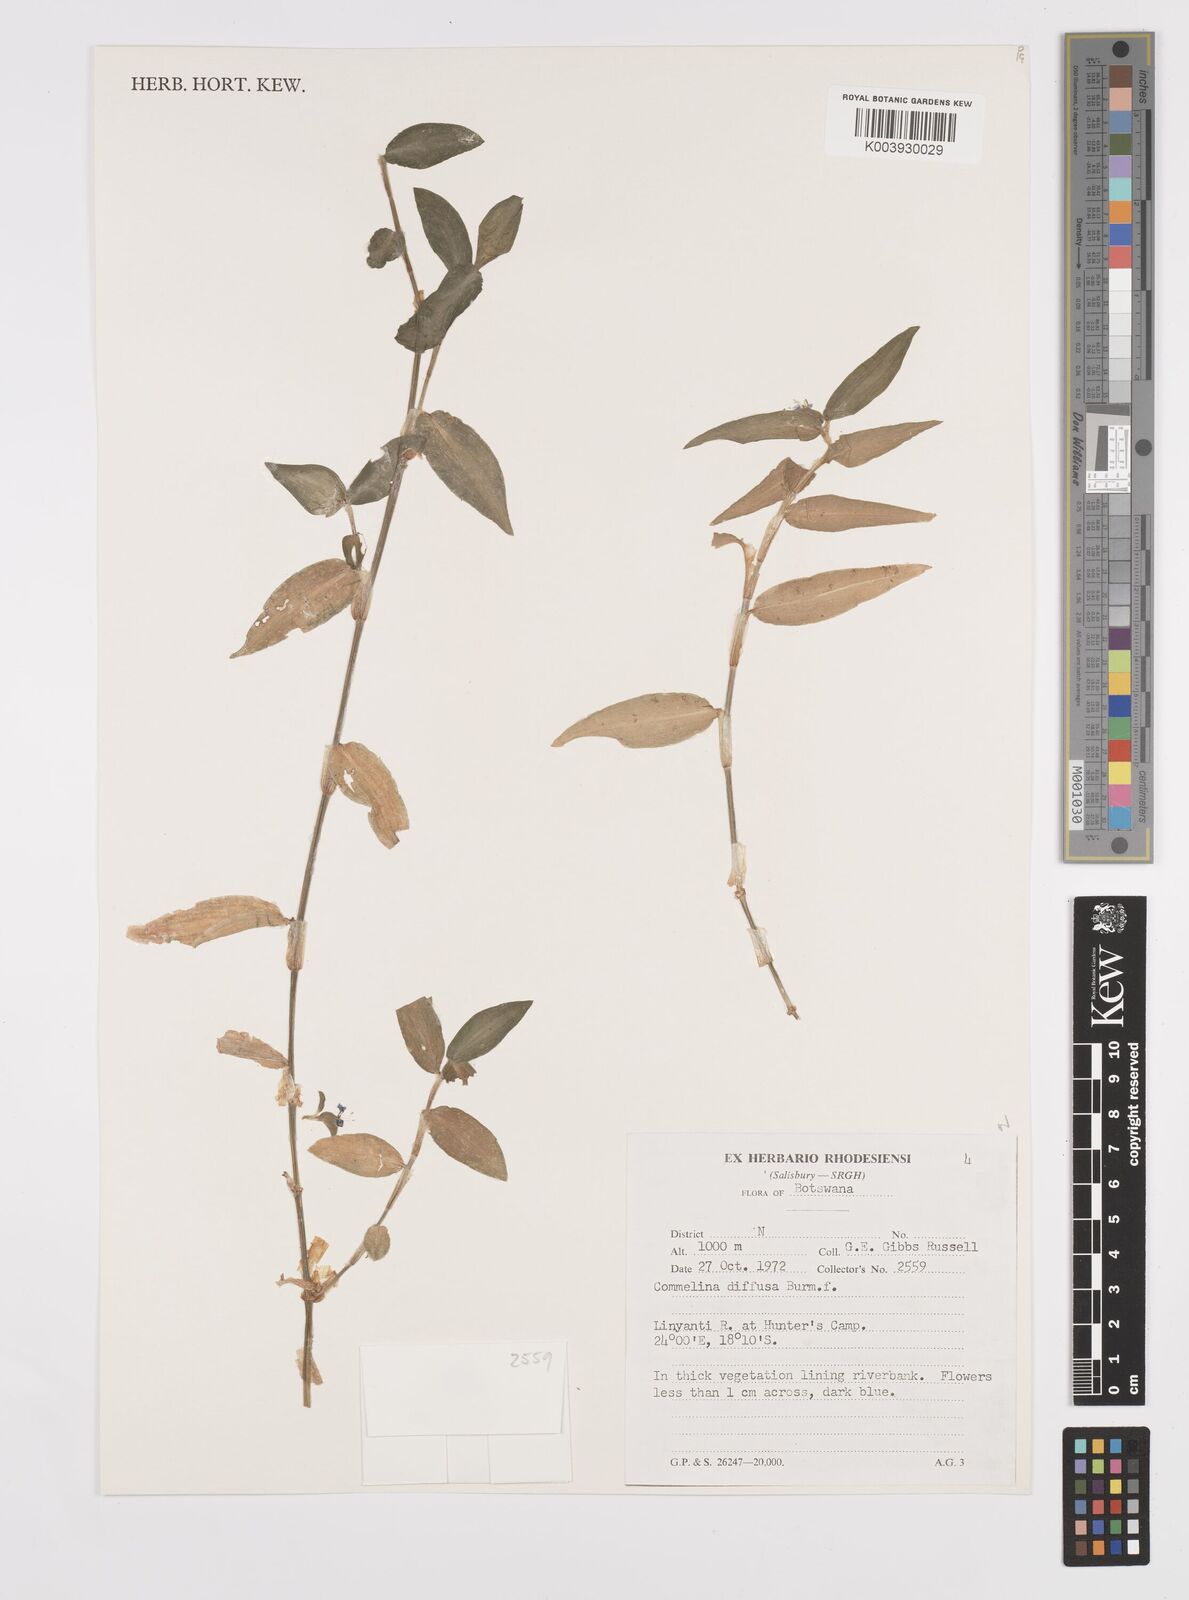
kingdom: Plantae
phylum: Tracheophyta
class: Liliopsida
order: Commelinales
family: Commelinaceae
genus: Commelina
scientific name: Commelina diffusa
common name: Climbing dayflower
